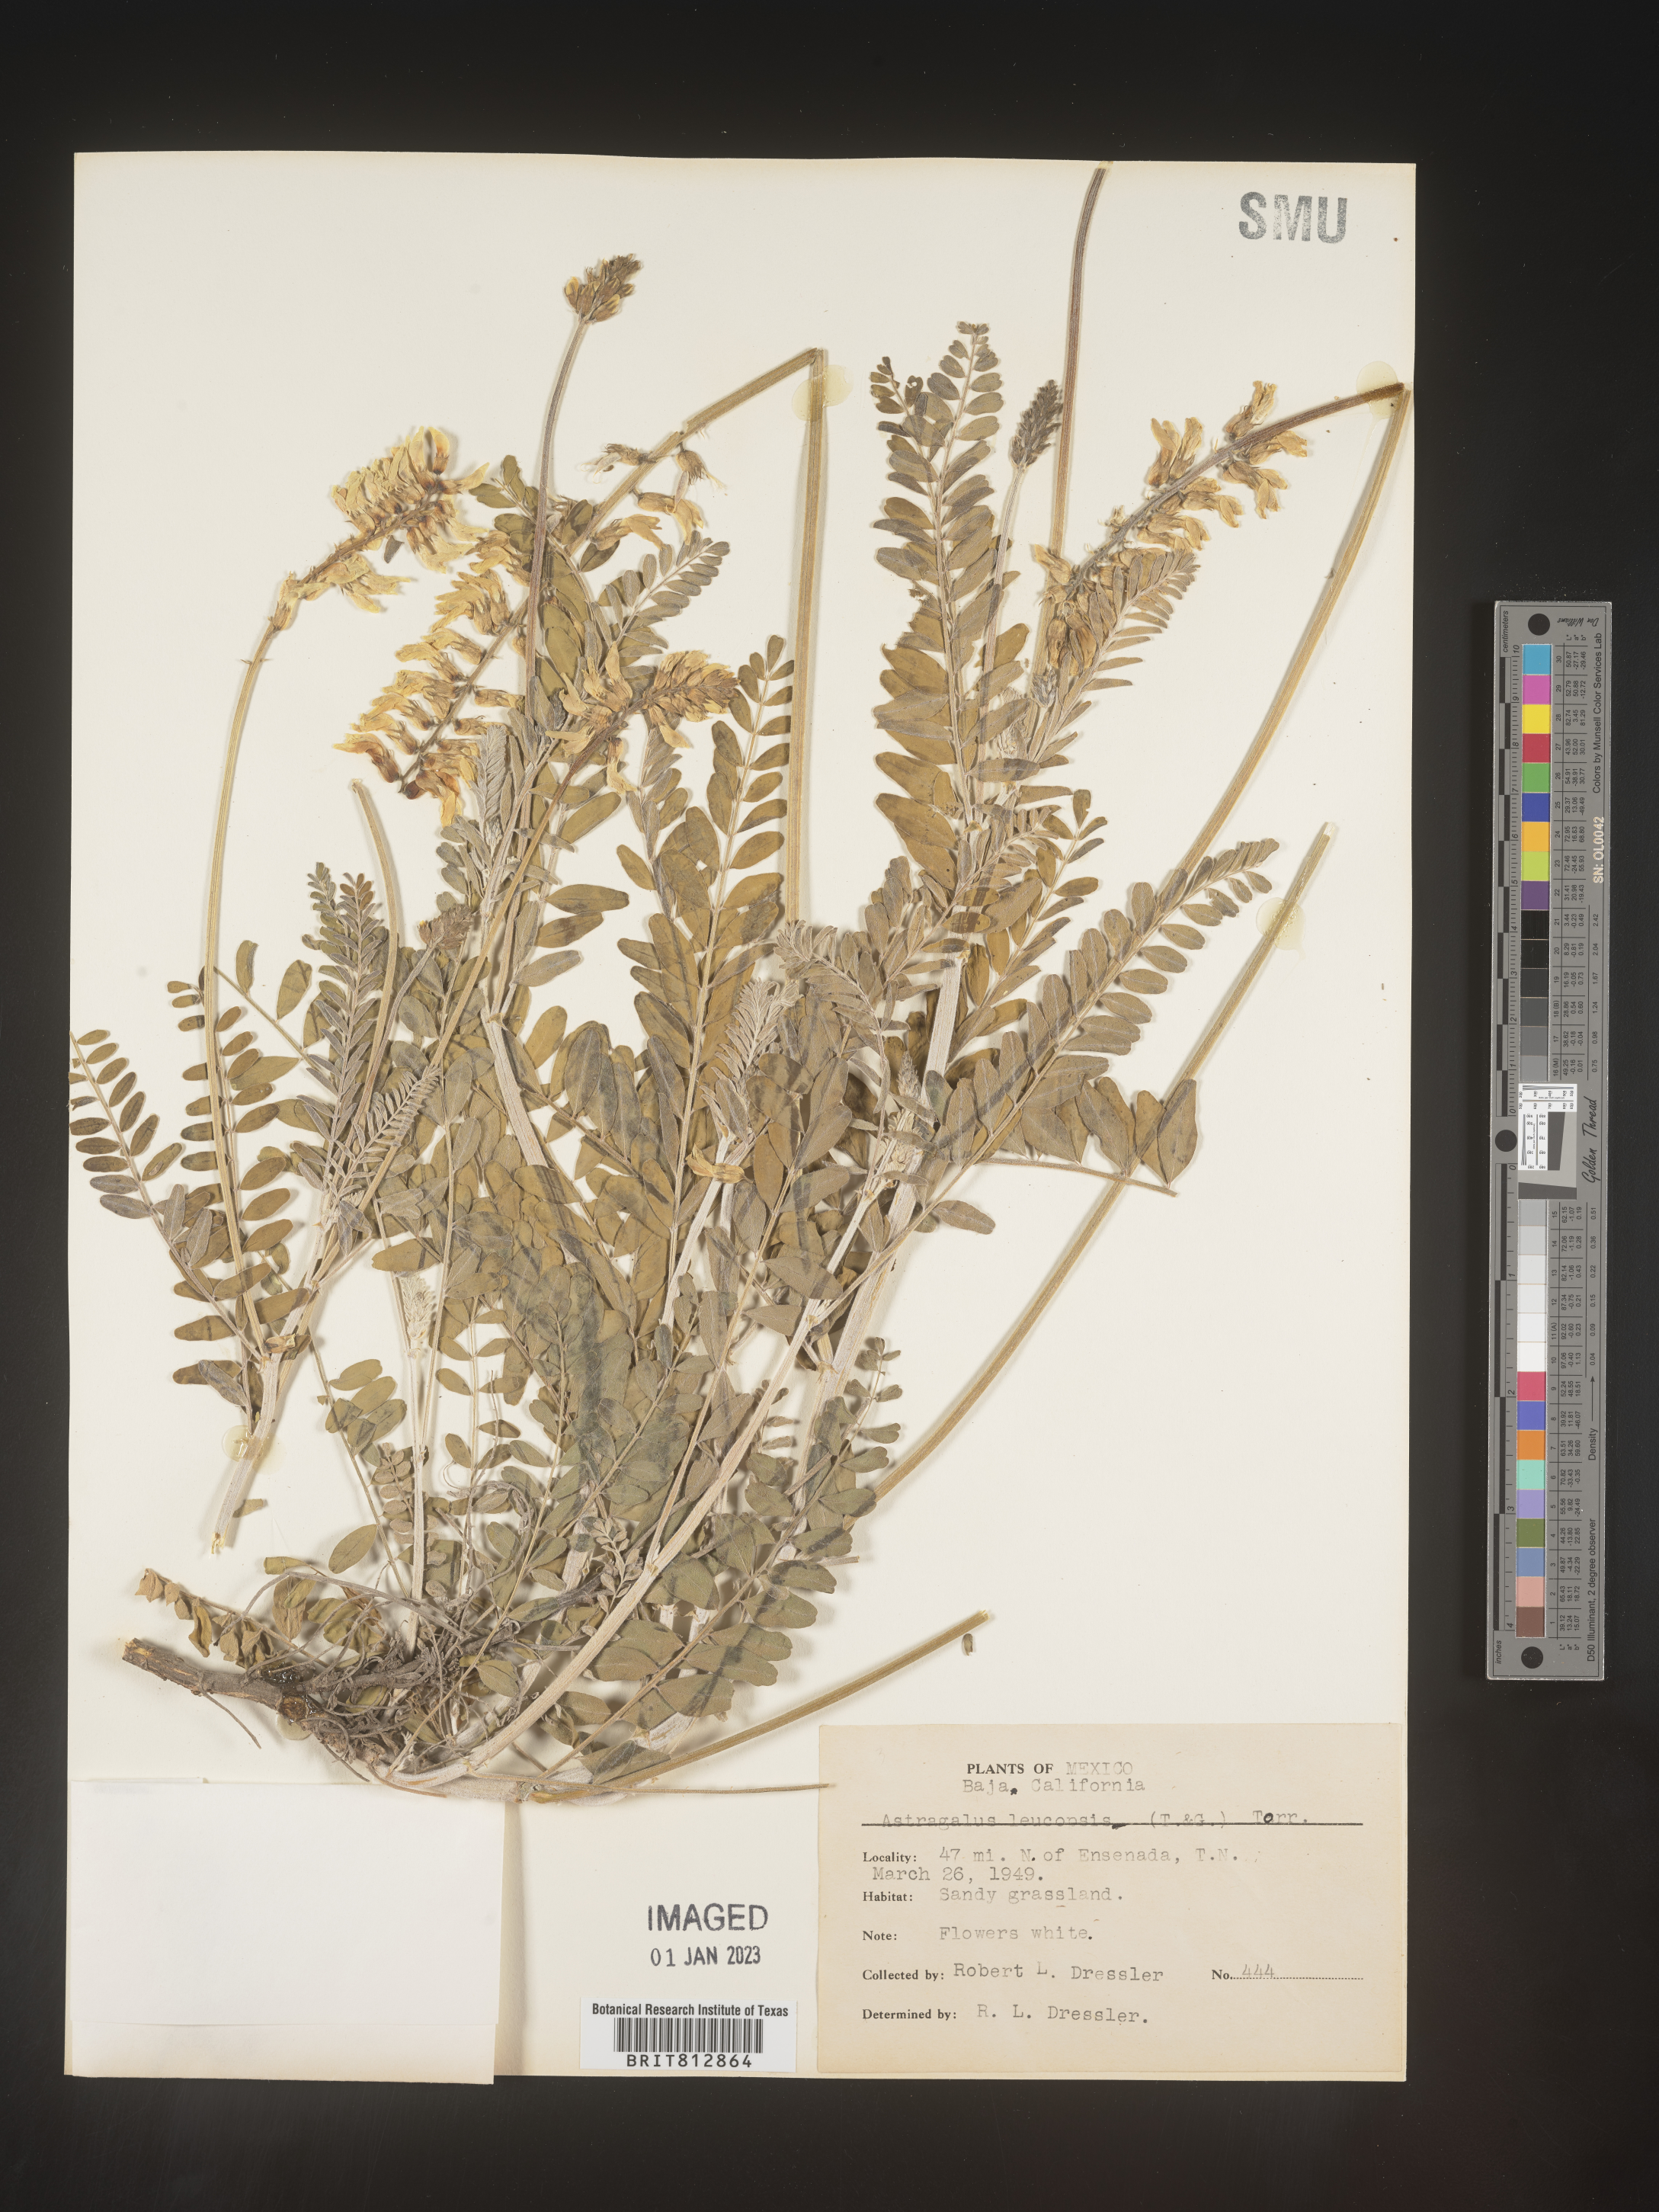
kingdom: Plantae
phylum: Tracheophyta
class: Magnoliopsida
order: Fabales
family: Fabaceae
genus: Astragalus
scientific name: Astragalus
